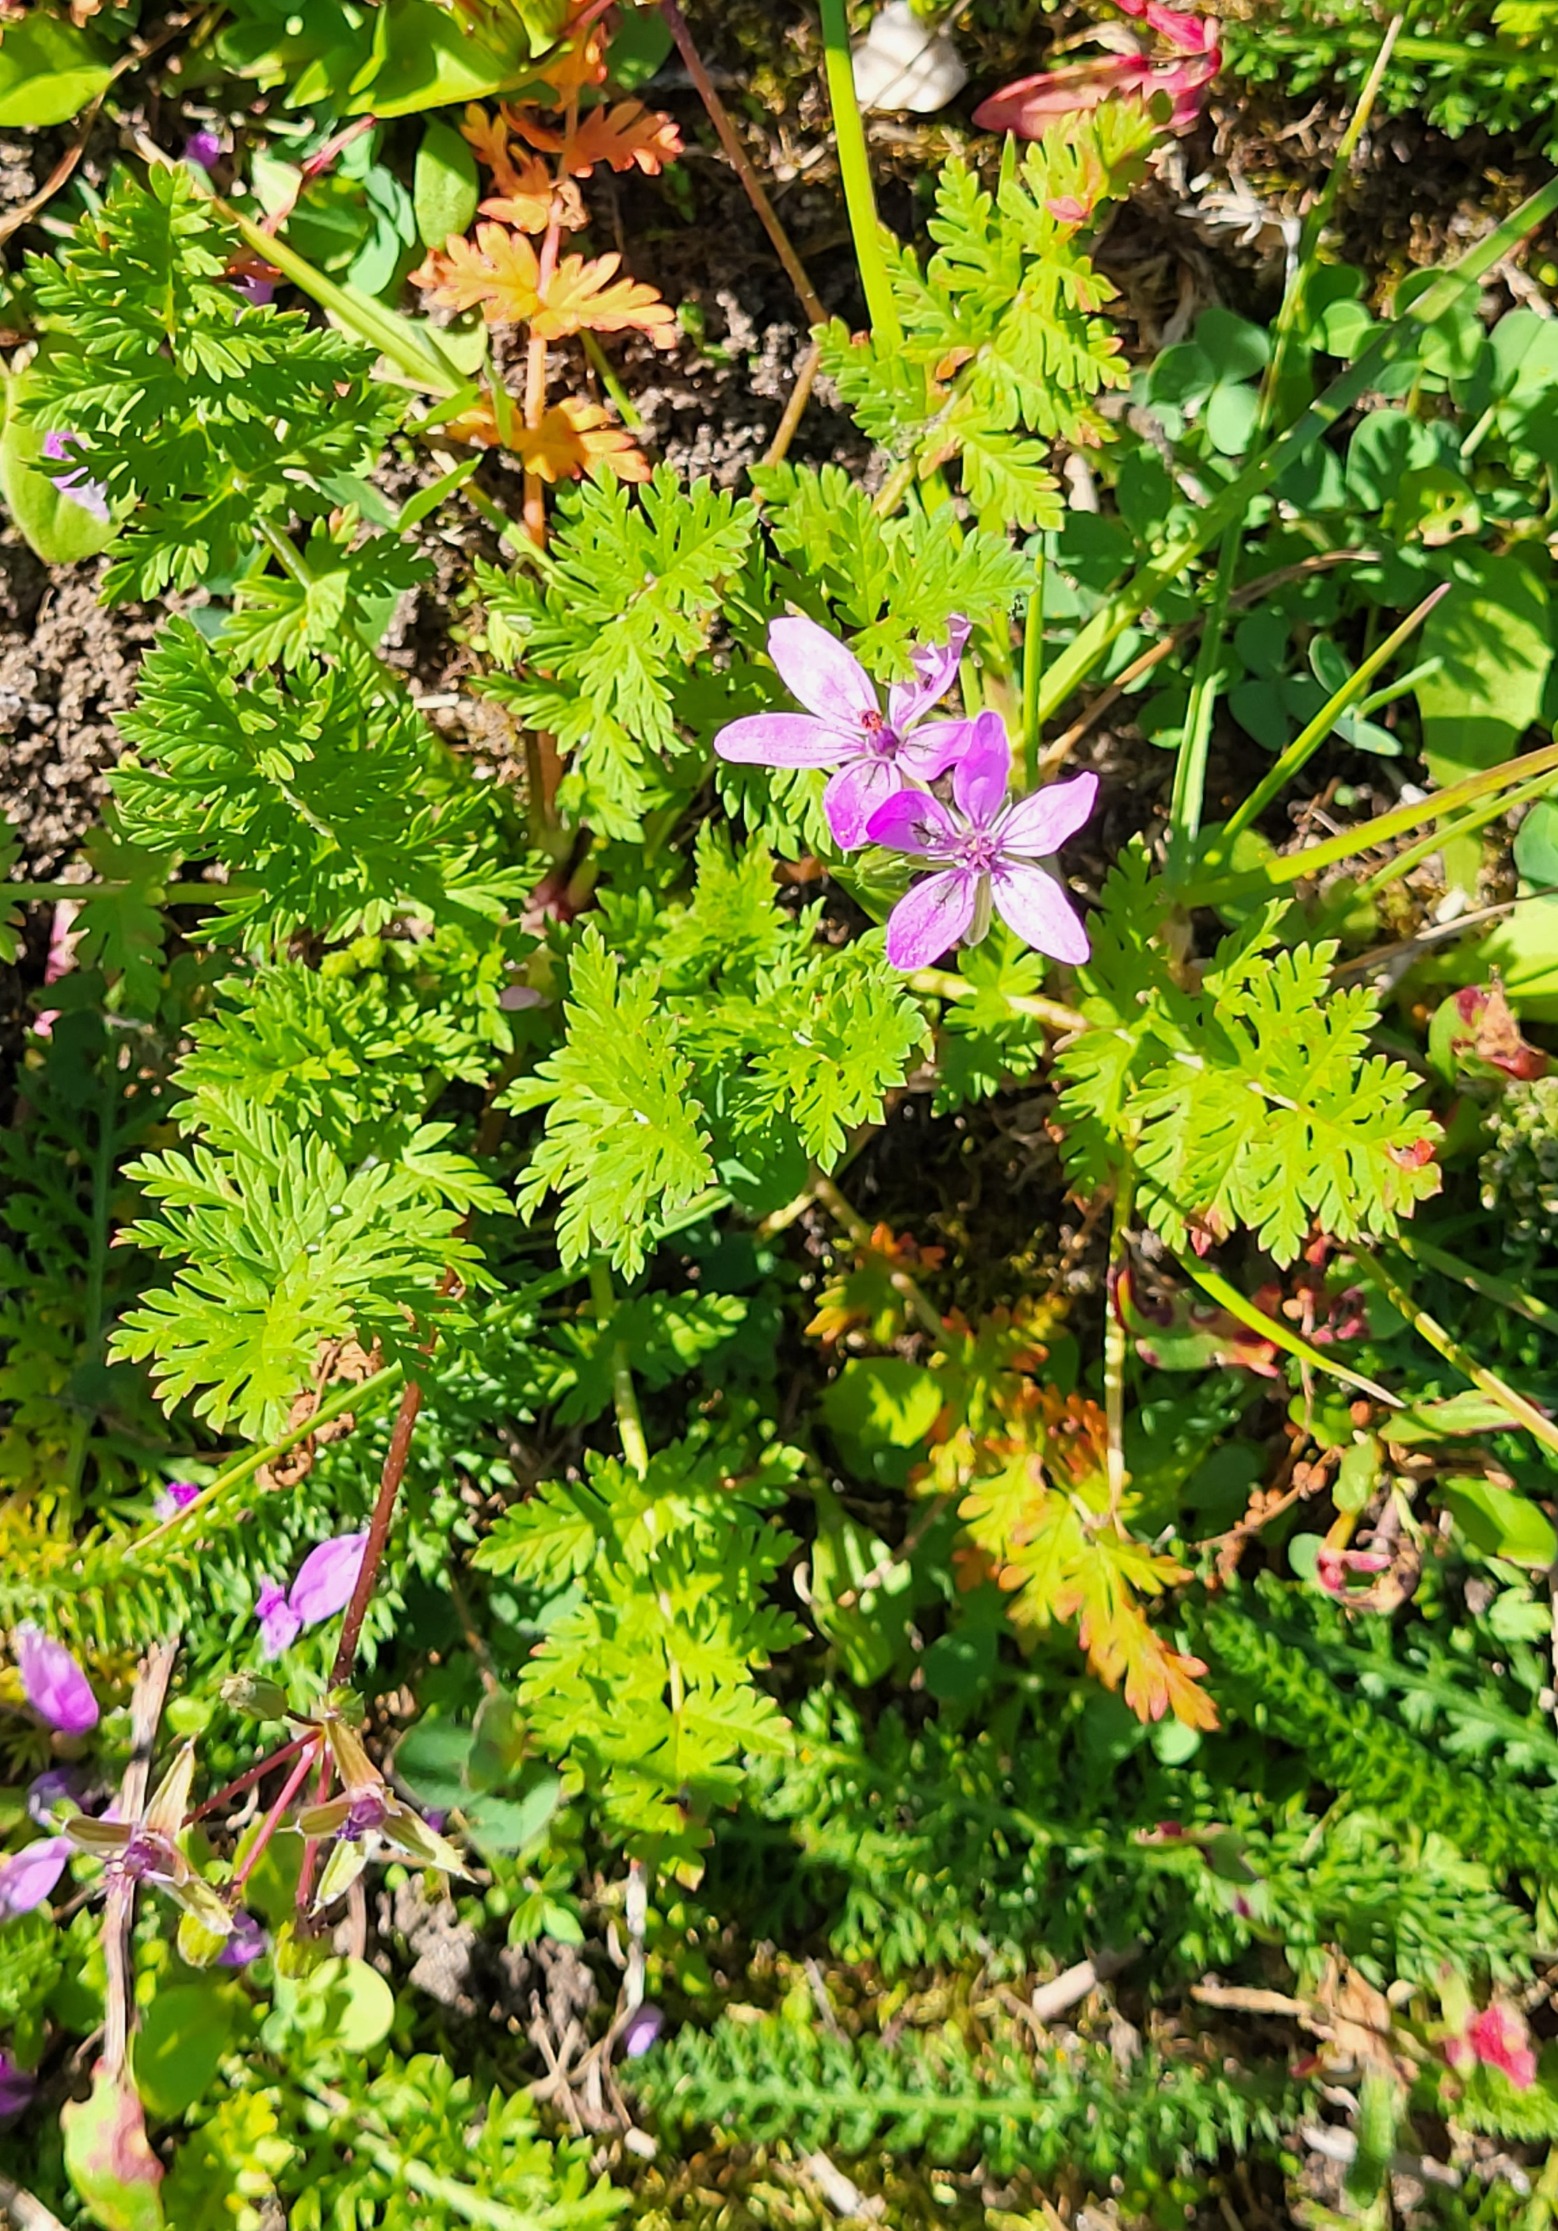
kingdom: Plantae
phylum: Tracheophyta
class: Magnoliopsida
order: Geraniales
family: Geraniaceae
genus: Erodium
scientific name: Erodium cicutarium
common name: Hejrenæb
